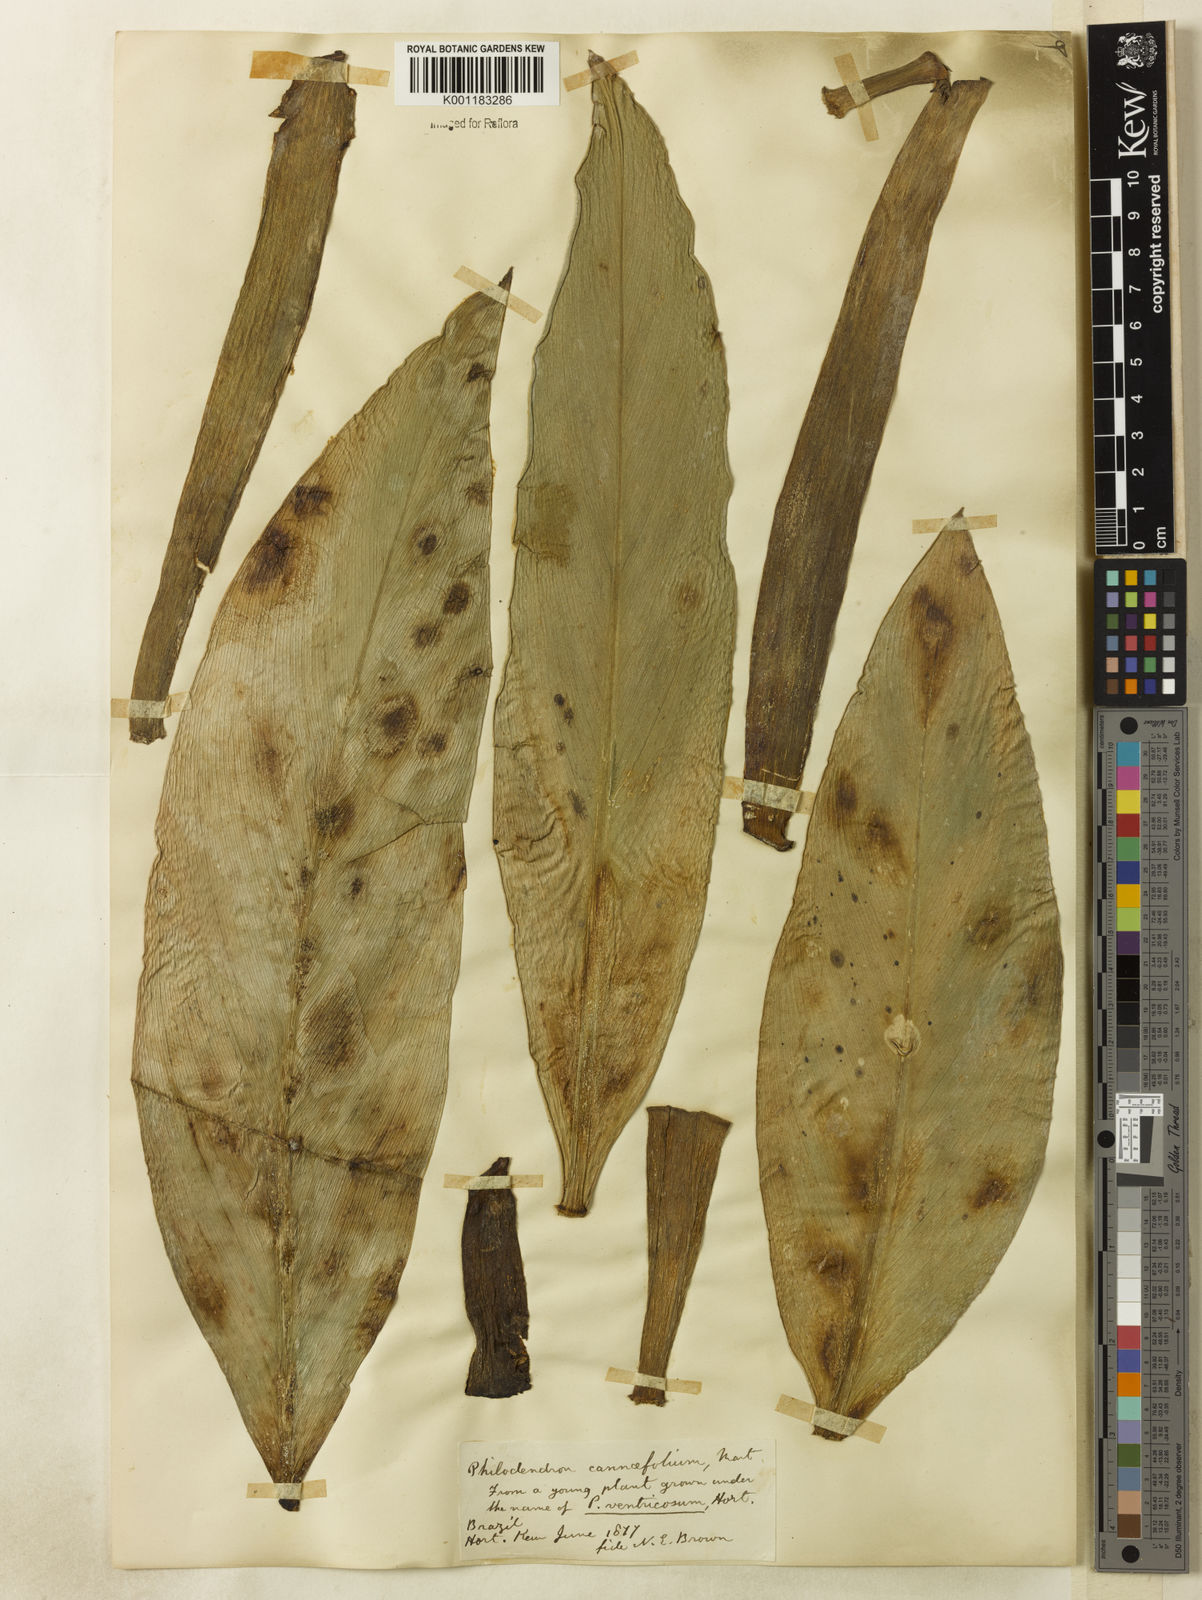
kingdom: Plantae
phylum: Tracheophyta
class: Liliopsida
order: Alismatales
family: Araceae
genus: Philodendron
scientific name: Philodendron martianum
